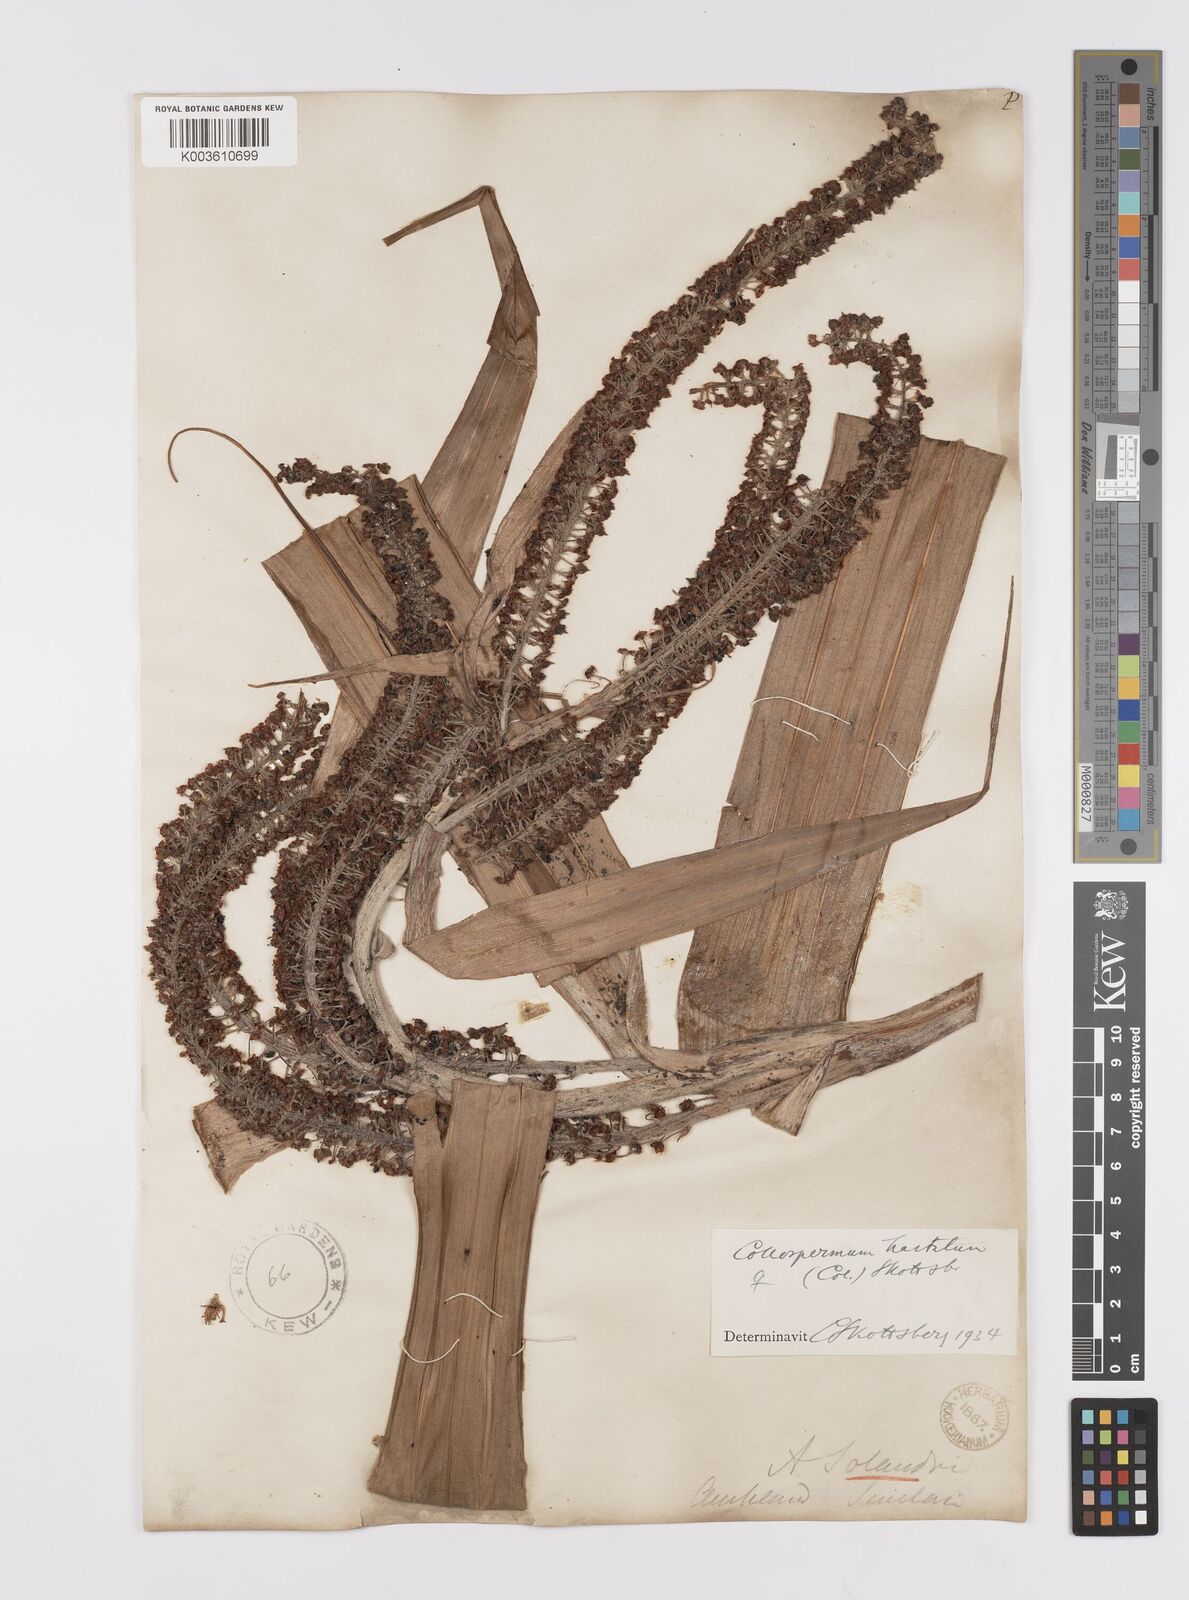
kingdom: Plantae
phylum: Tracheophyta
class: Liliopsida
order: Asparagales
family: Asteliaceae
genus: Astelia
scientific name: Astelia hastata
